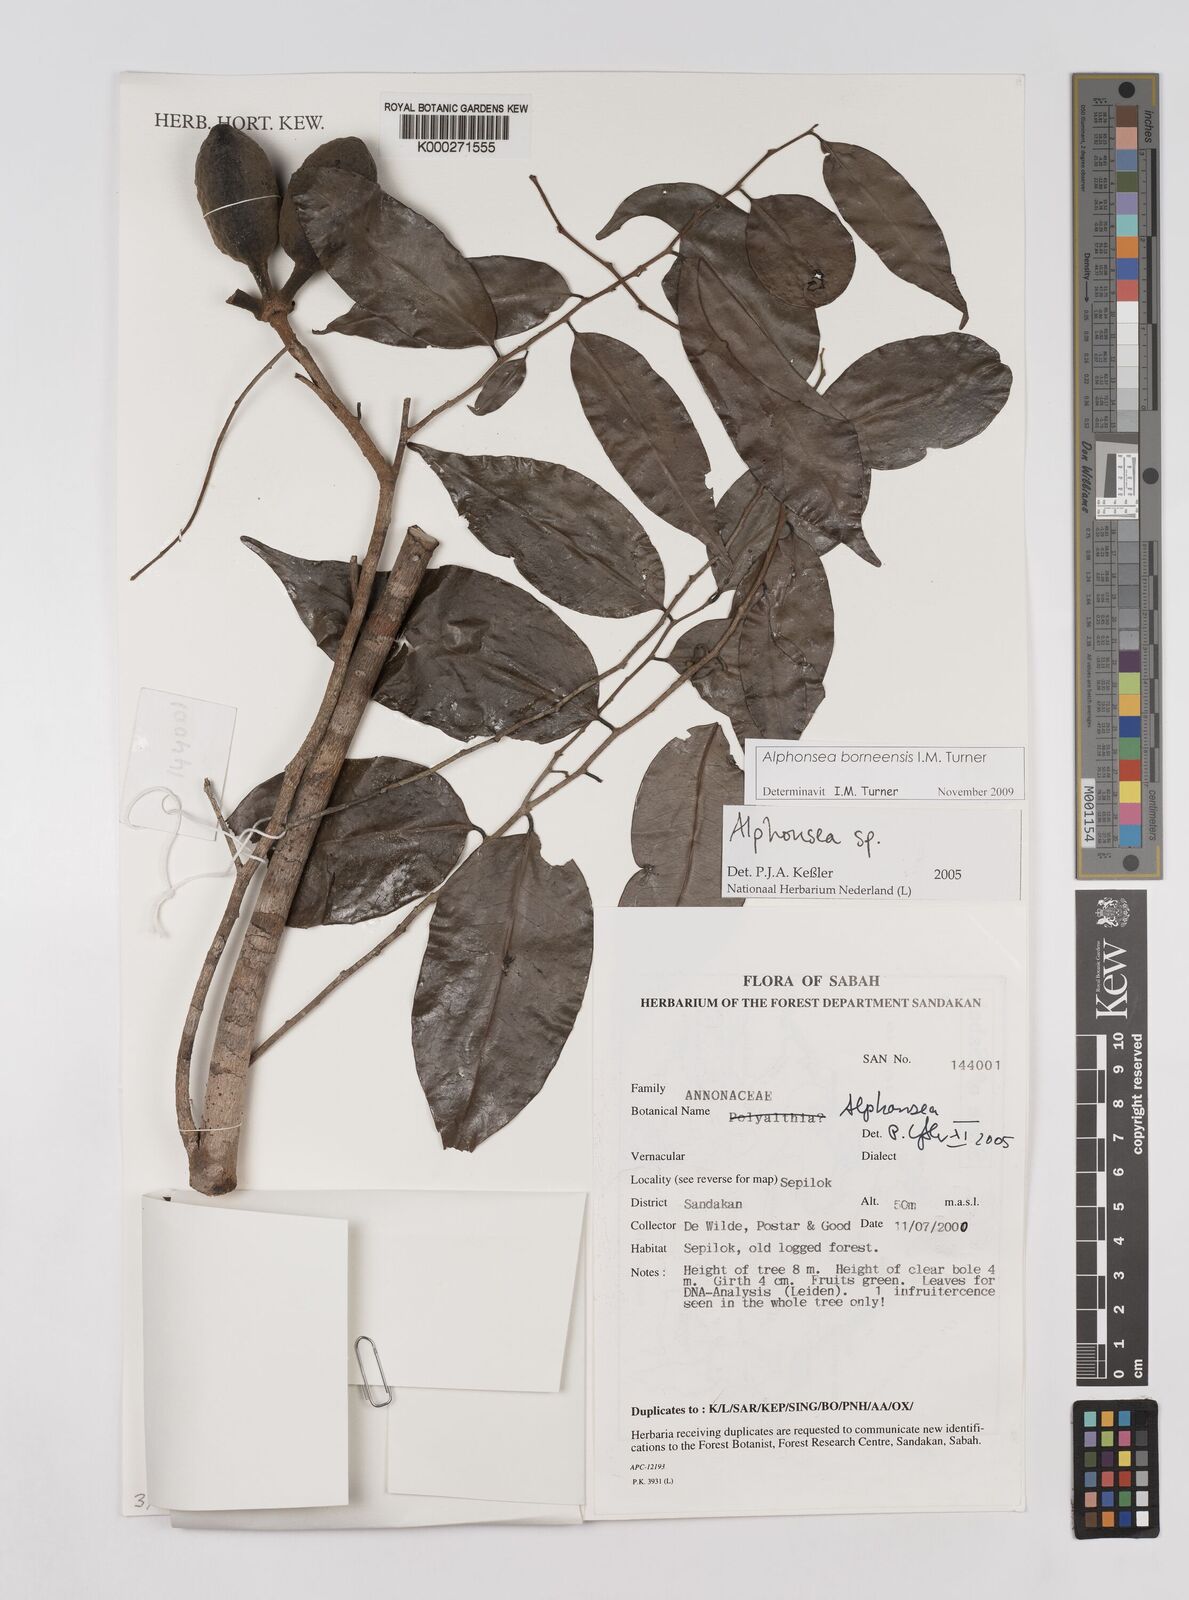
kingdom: Plantae
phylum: Tracheophyta
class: Magnoliopsida
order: Magnoliales
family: Annonaceae
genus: Alphonsea
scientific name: Alphonsea
